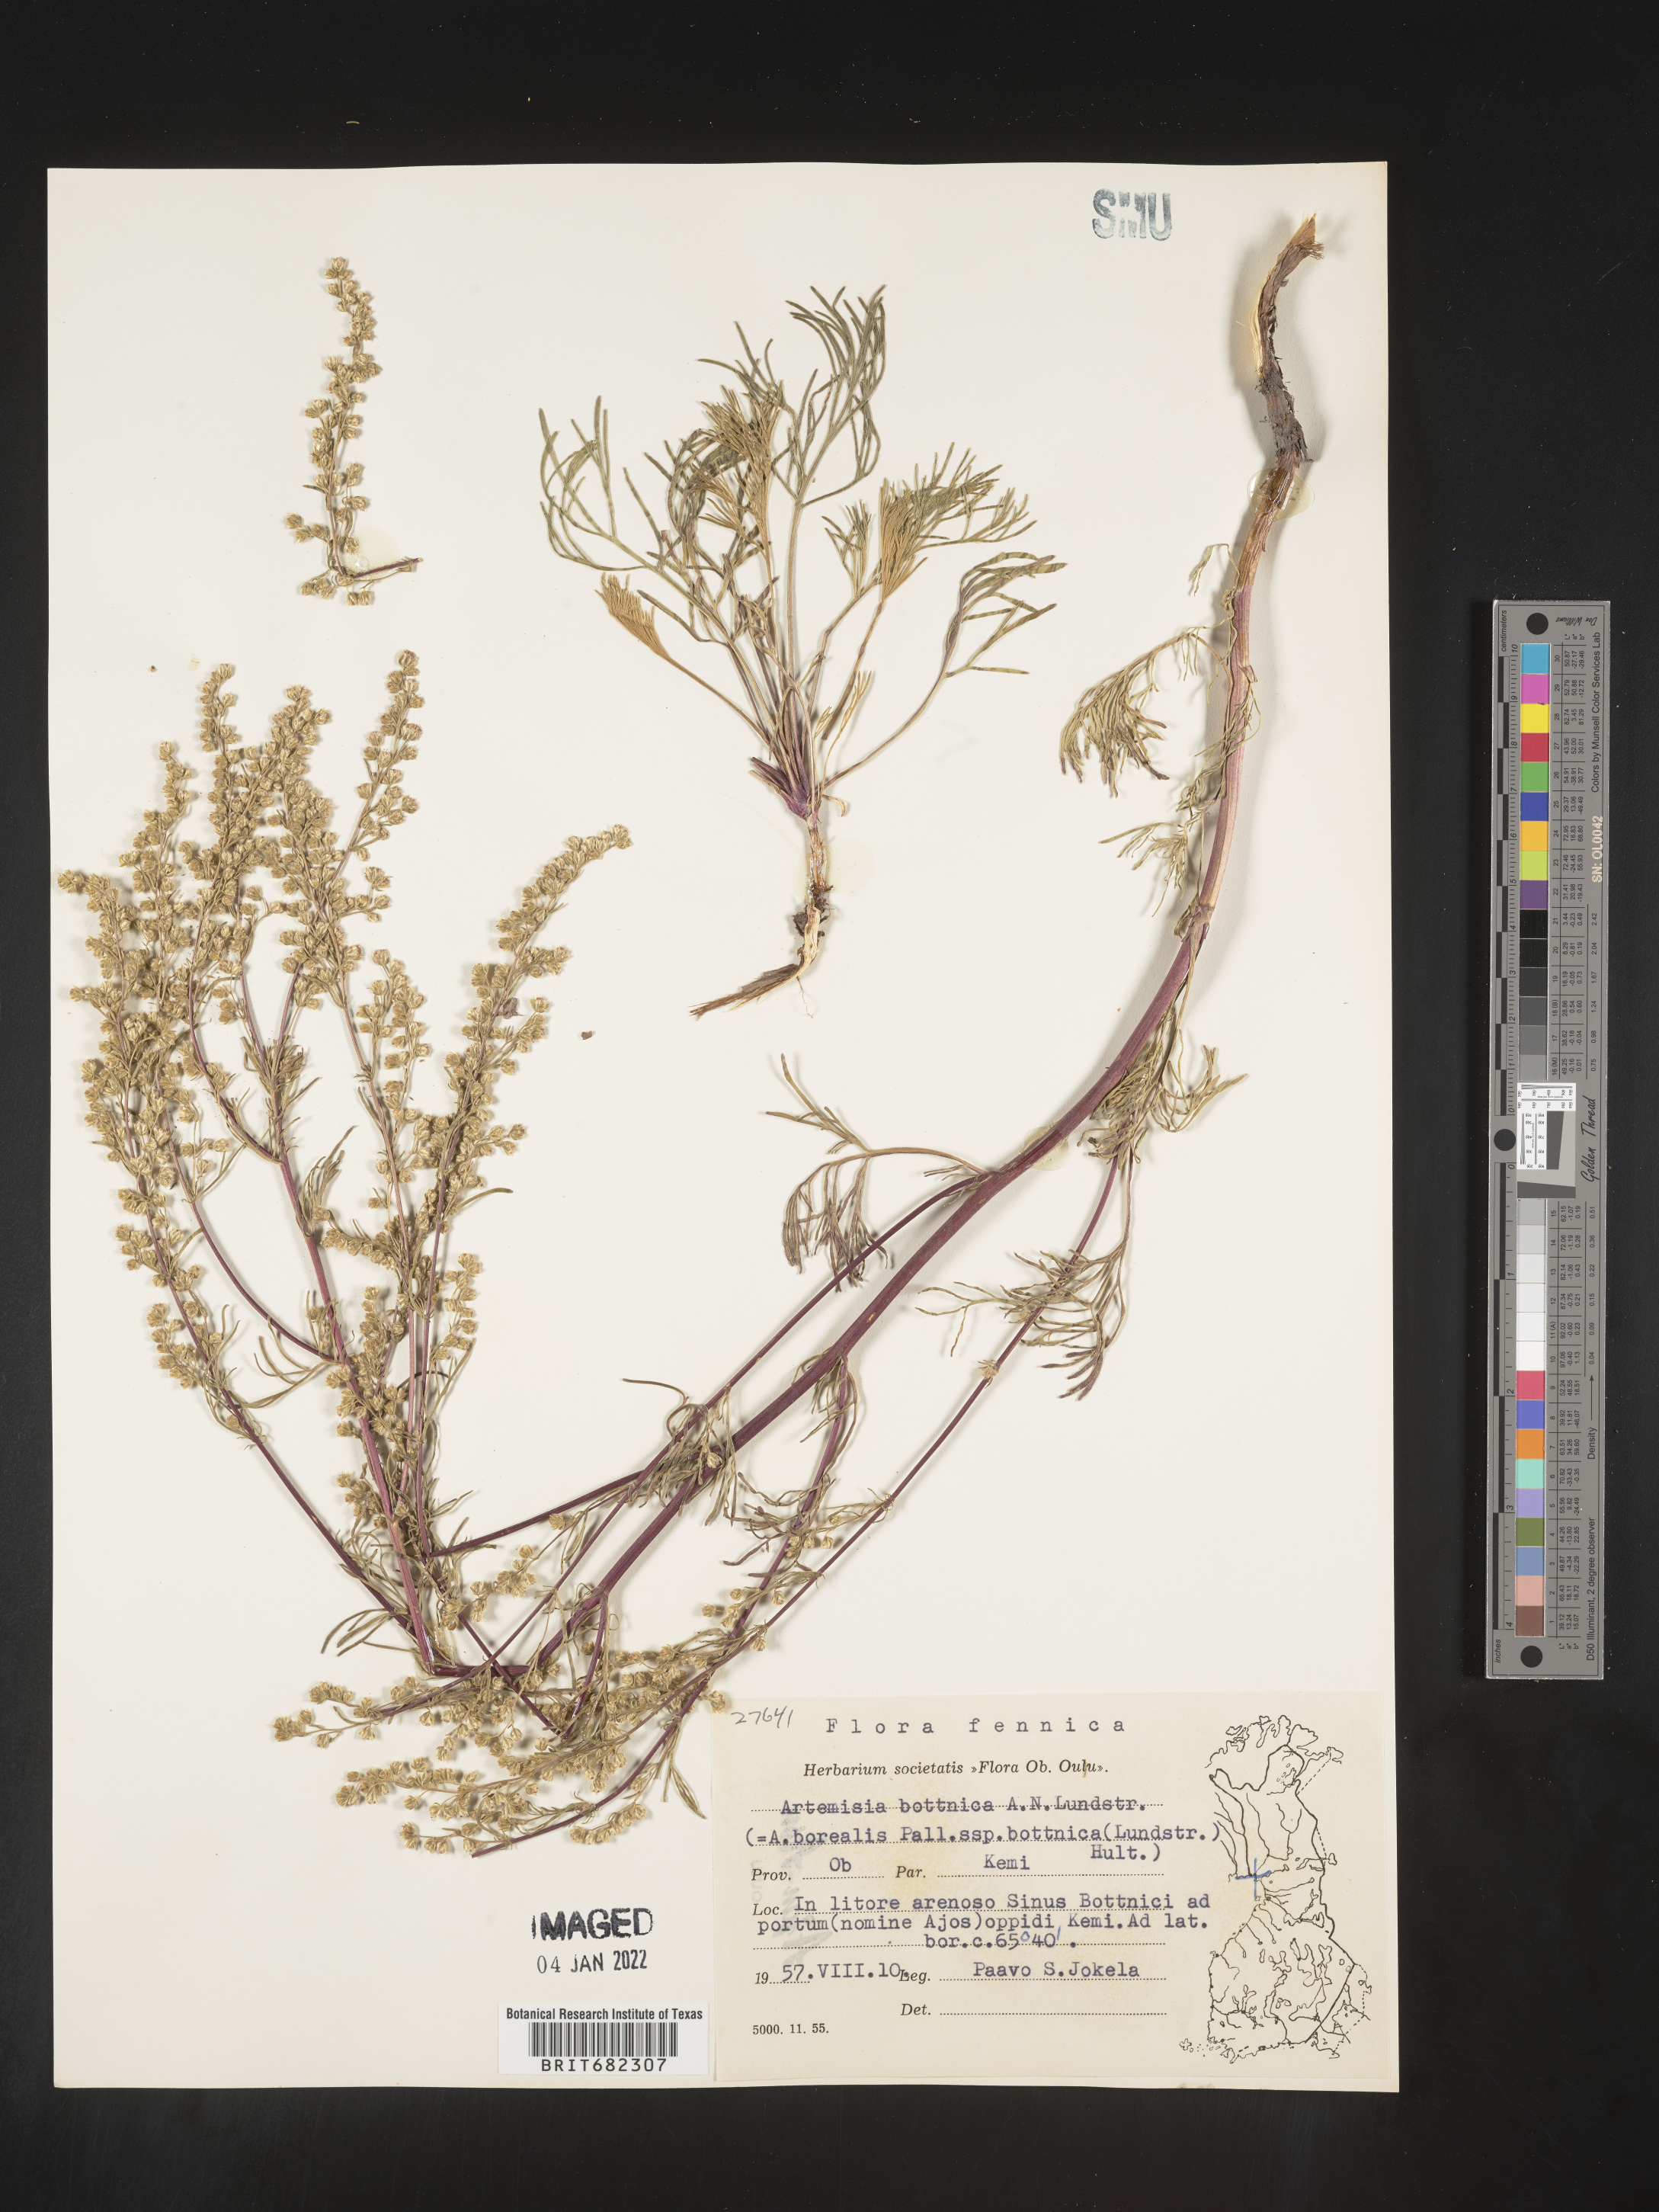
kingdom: Plantae
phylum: Tracheophyta
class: Magnoliopsida
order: Asterales
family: Asteraceae
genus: Artemisia
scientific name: Artemisia
